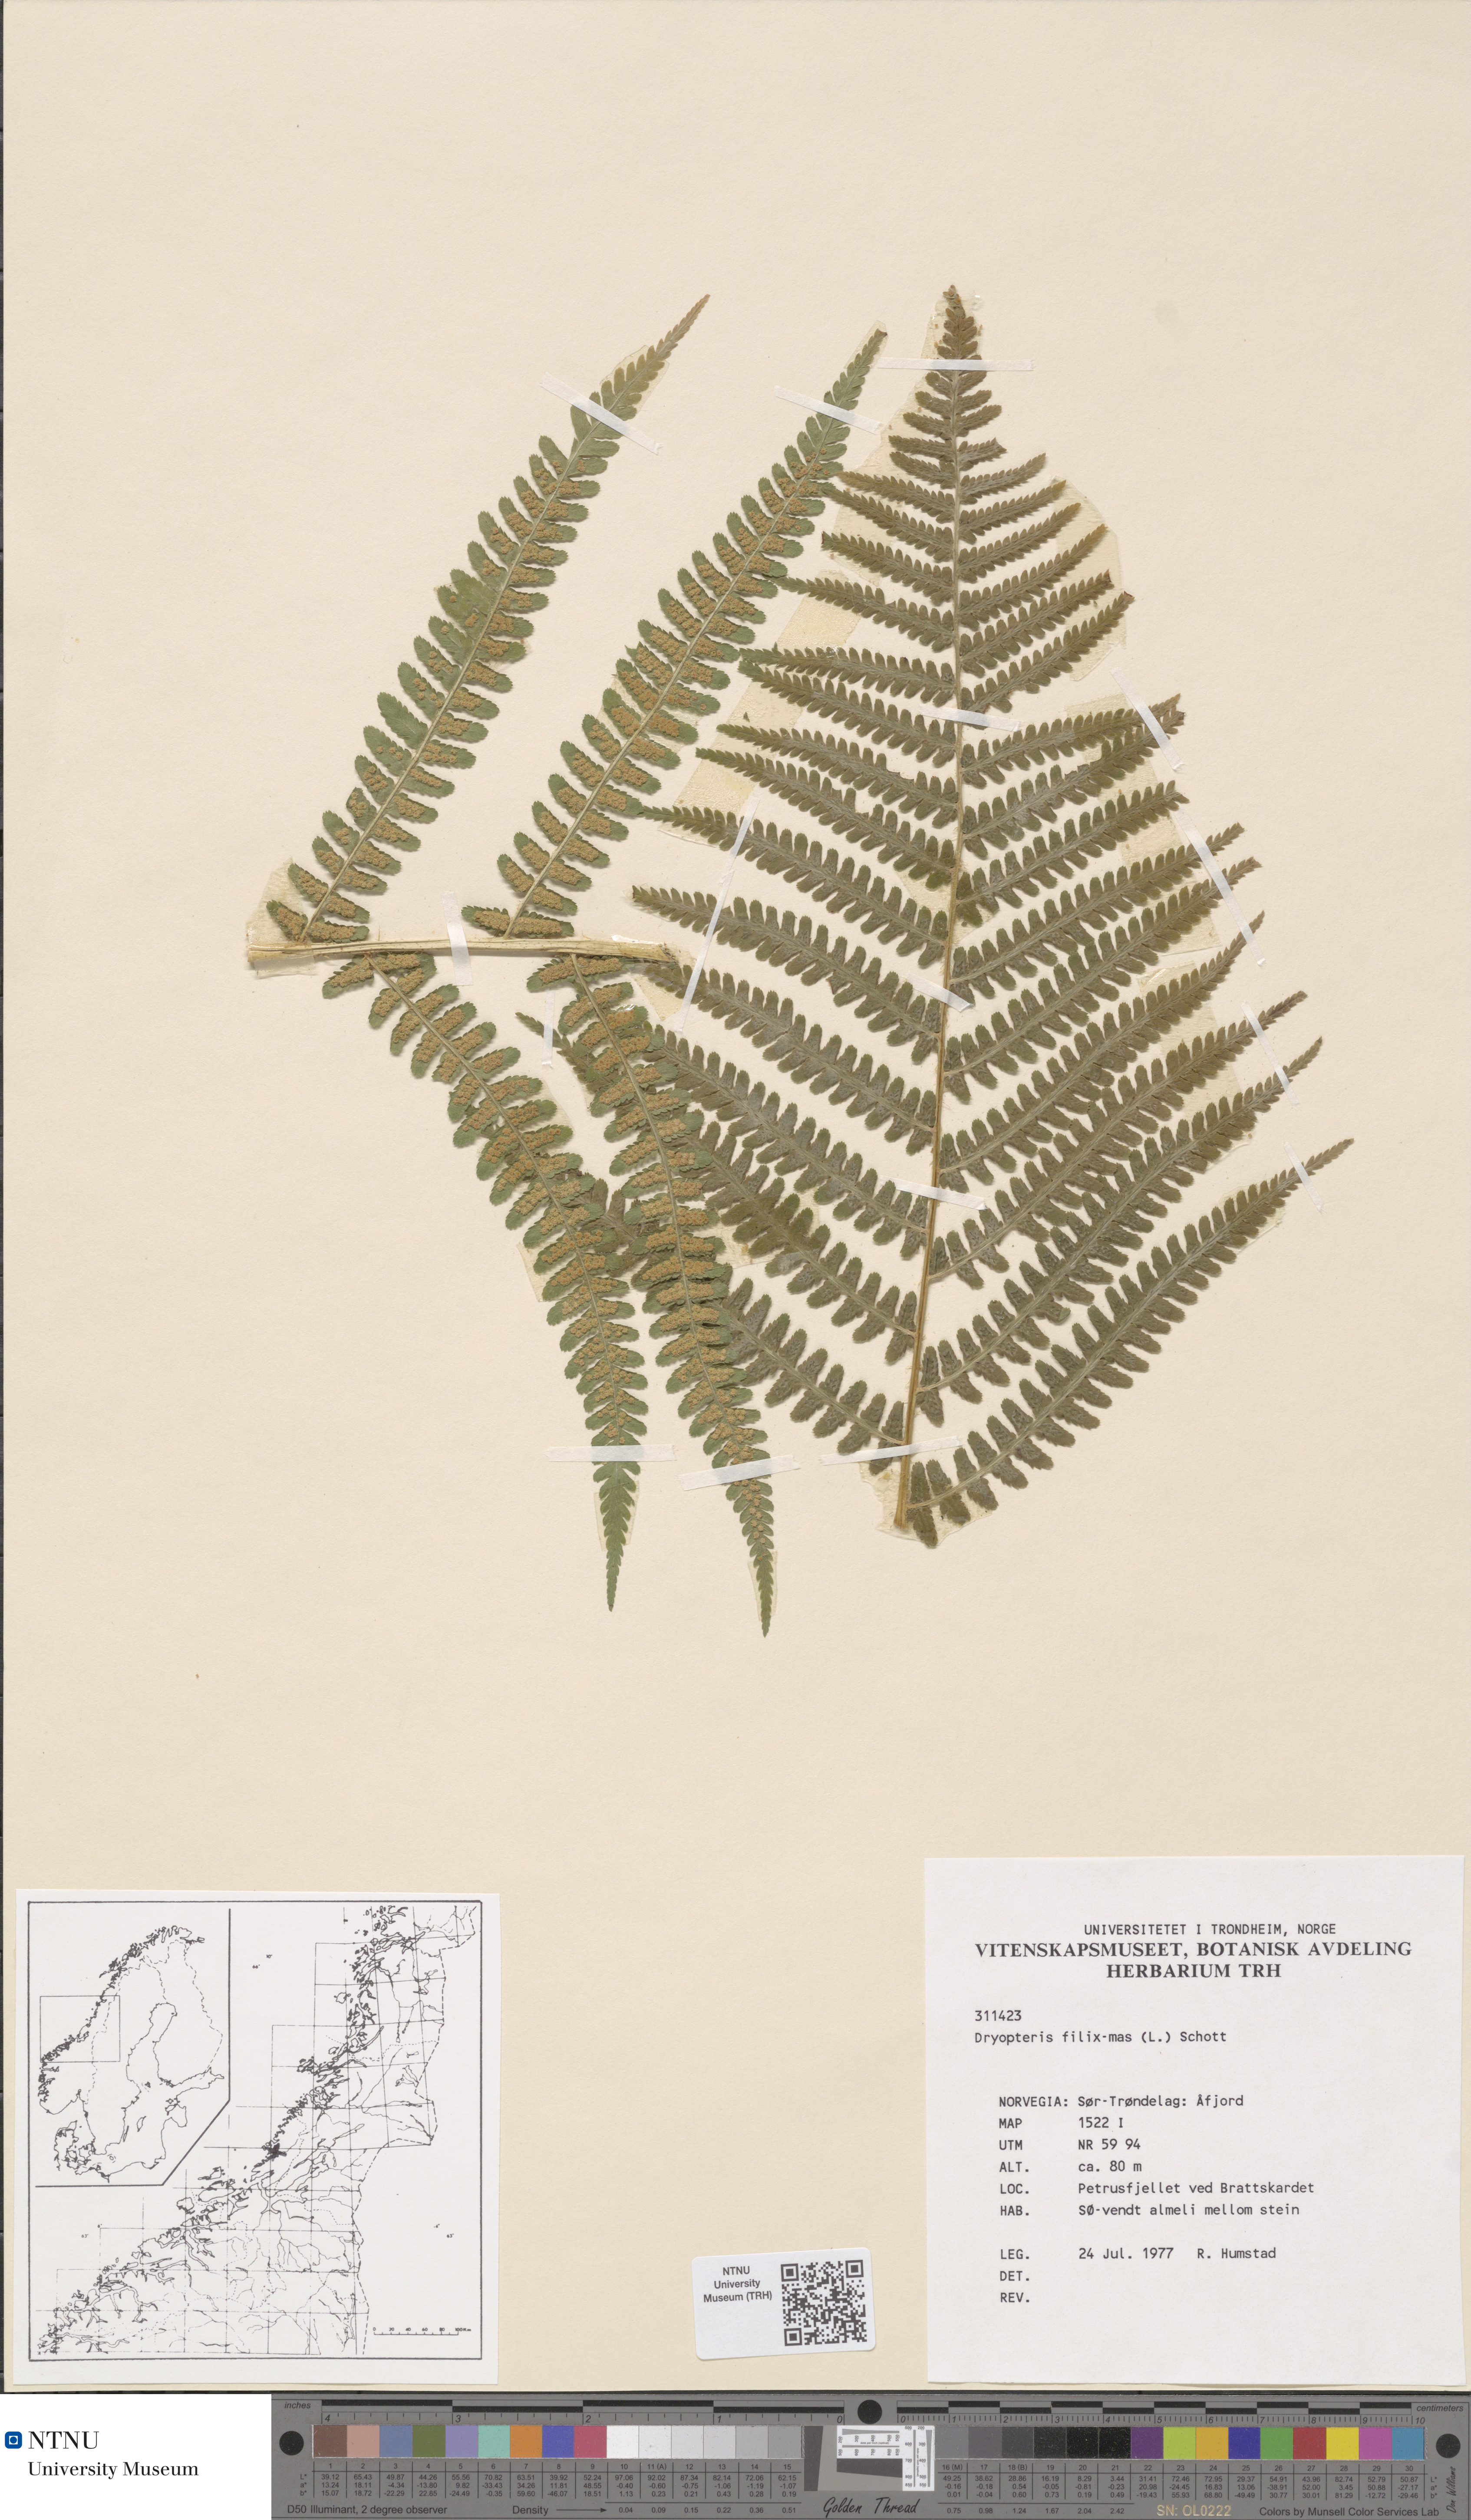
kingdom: Plantae
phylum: Tracheophyta
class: Polypodiopsida
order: Polypodiales
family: Dryopteridaceae
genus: Dryopteris
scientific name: Dryopteris filix-mas
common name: Male fern
